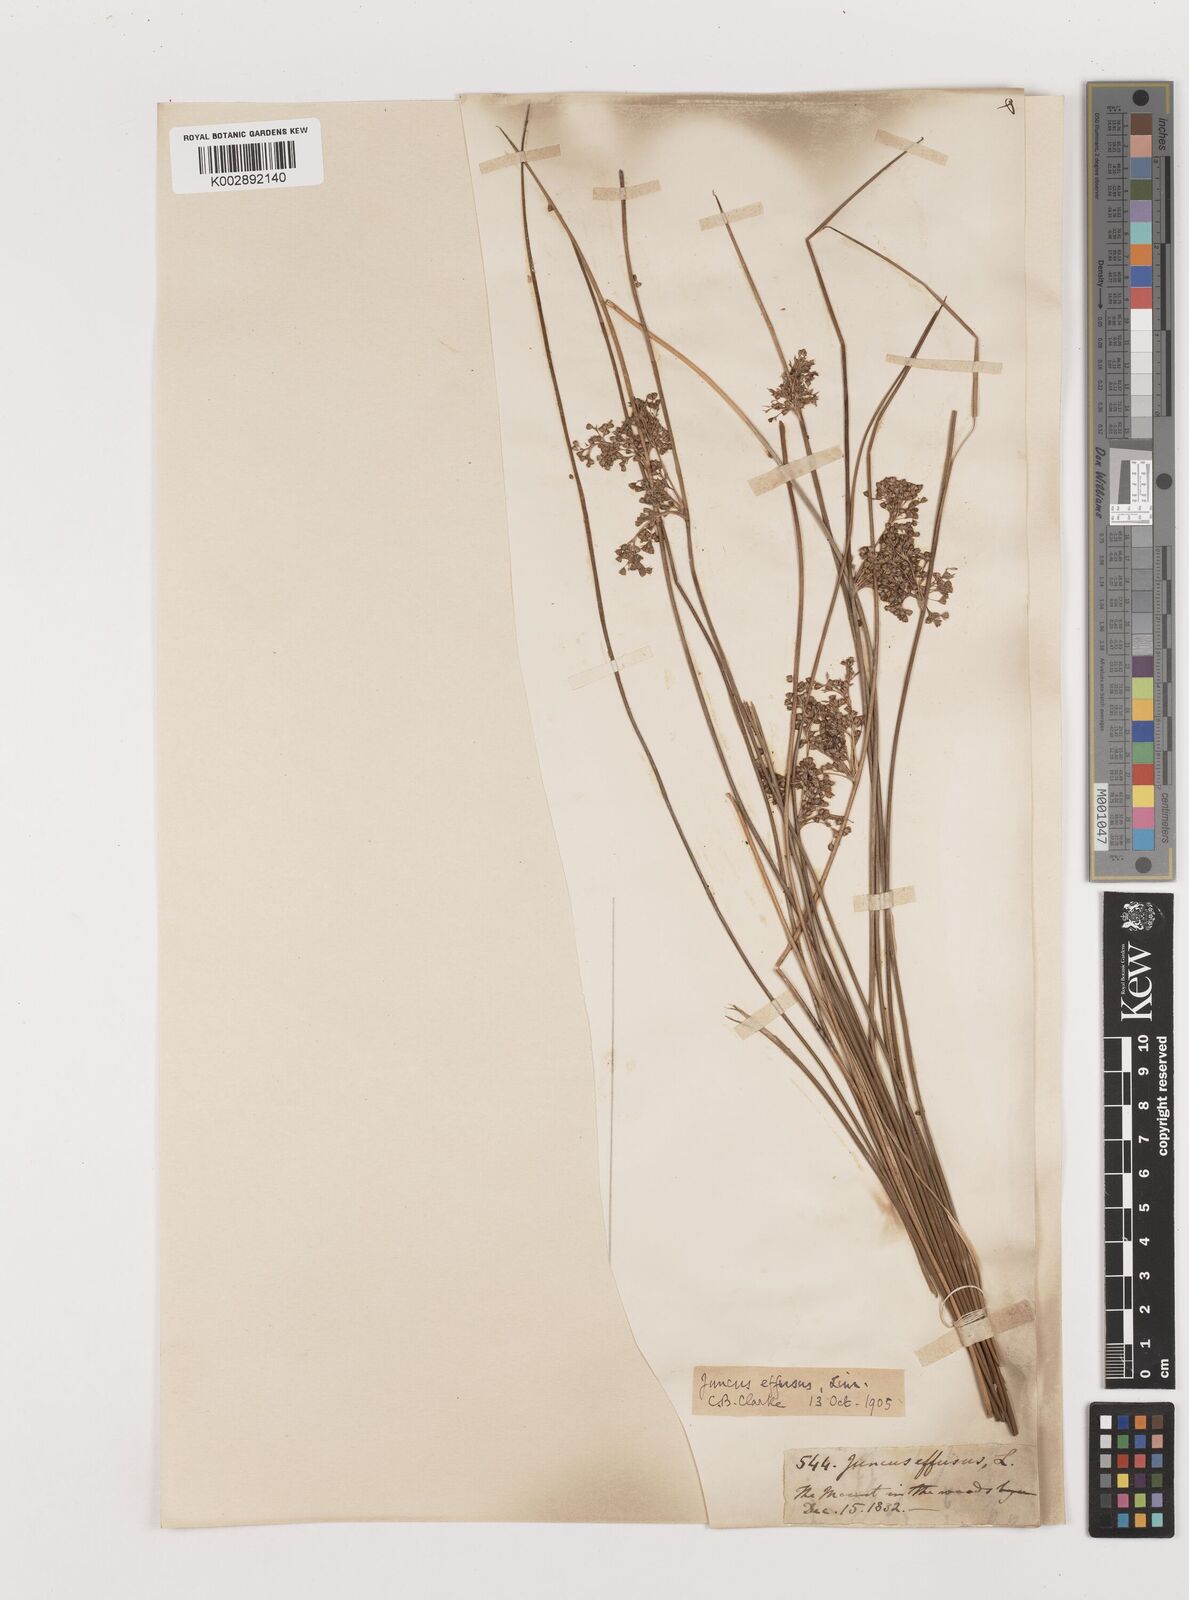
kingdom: Plantae
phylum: Tracheophyta
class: Liliopsida
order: Poales
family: Juncaceae
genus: Juncus
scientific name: Juncus effusus
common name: Soft rush
